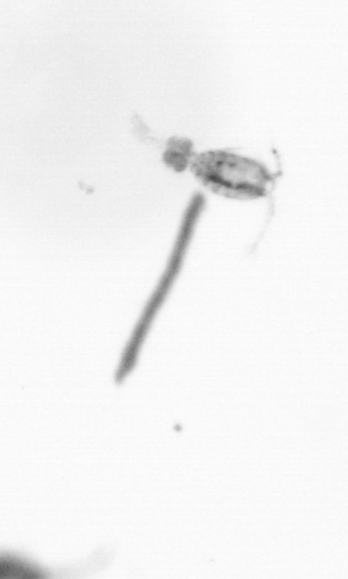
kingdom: Animalia
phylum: Arthropoda
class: Copepoda
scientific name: Copepoda
